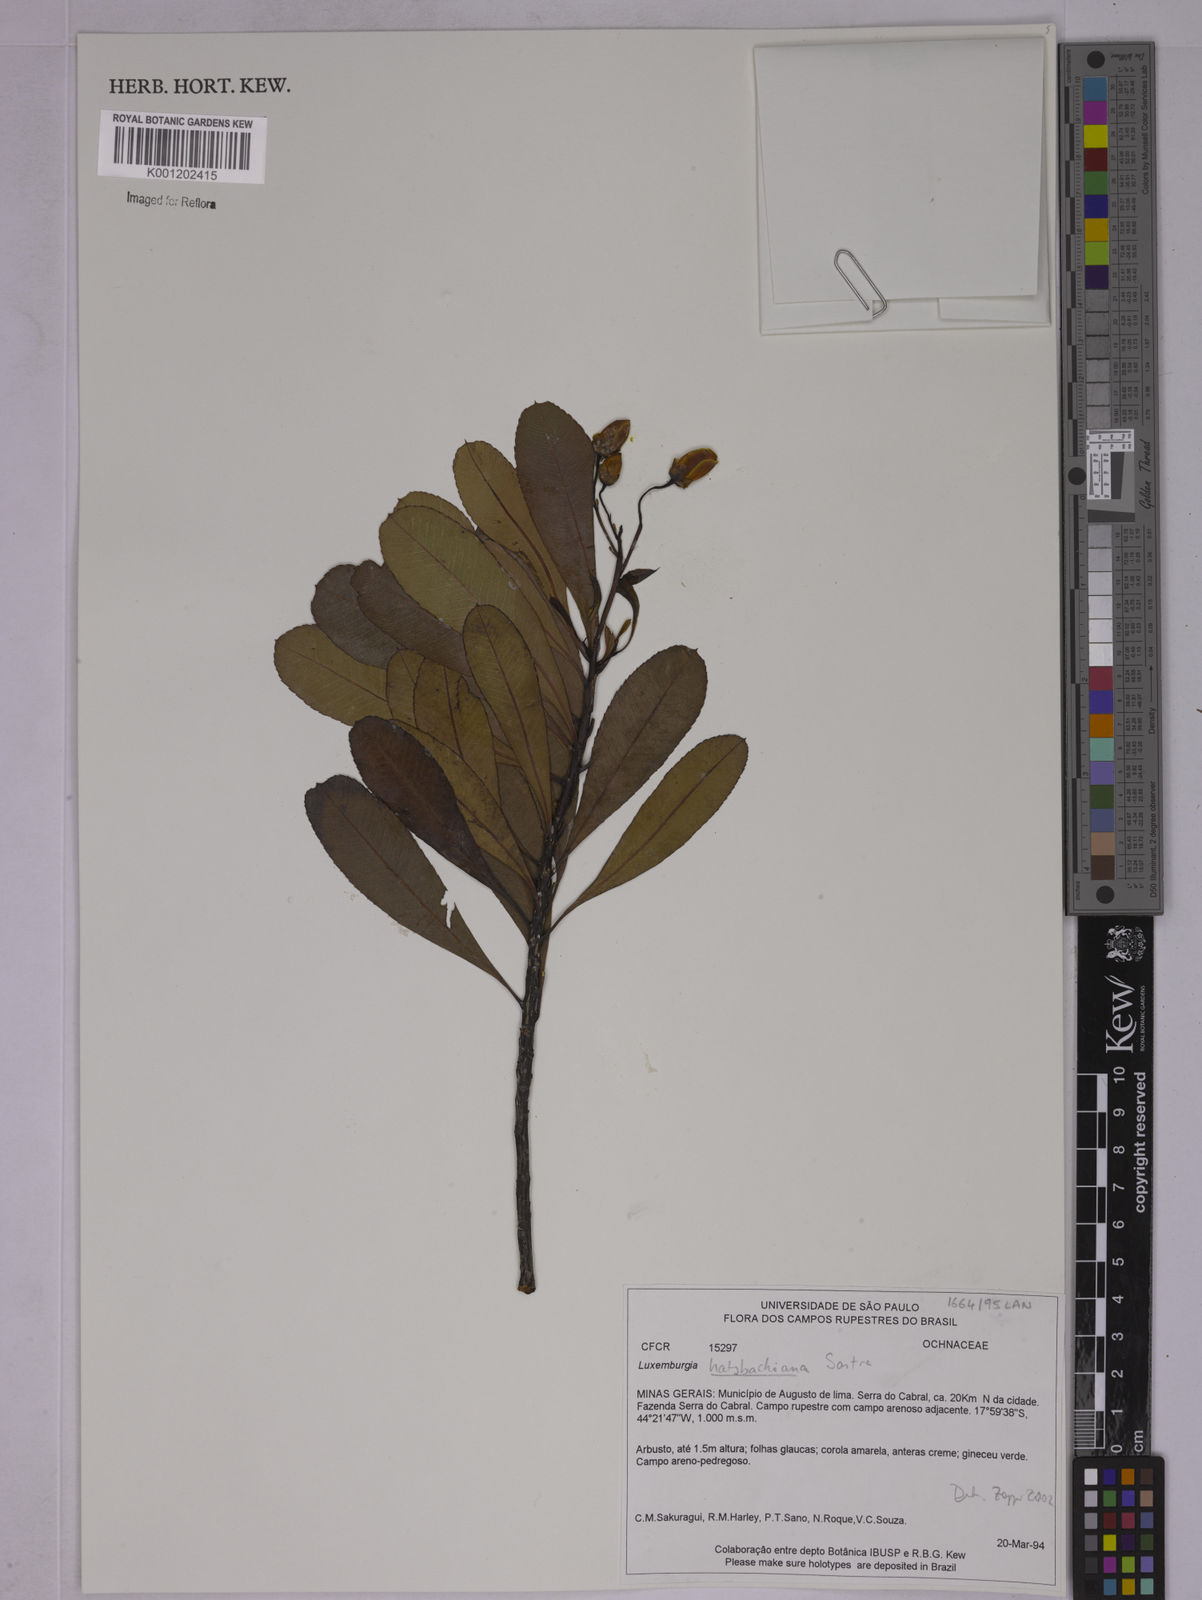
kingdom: Plantae
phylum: Tracheophyta
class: Magnoliopsida
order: Malpighiales
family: Ochnaceae
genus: Luxemburgia
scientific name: Luxemburgia hatschbachiana
